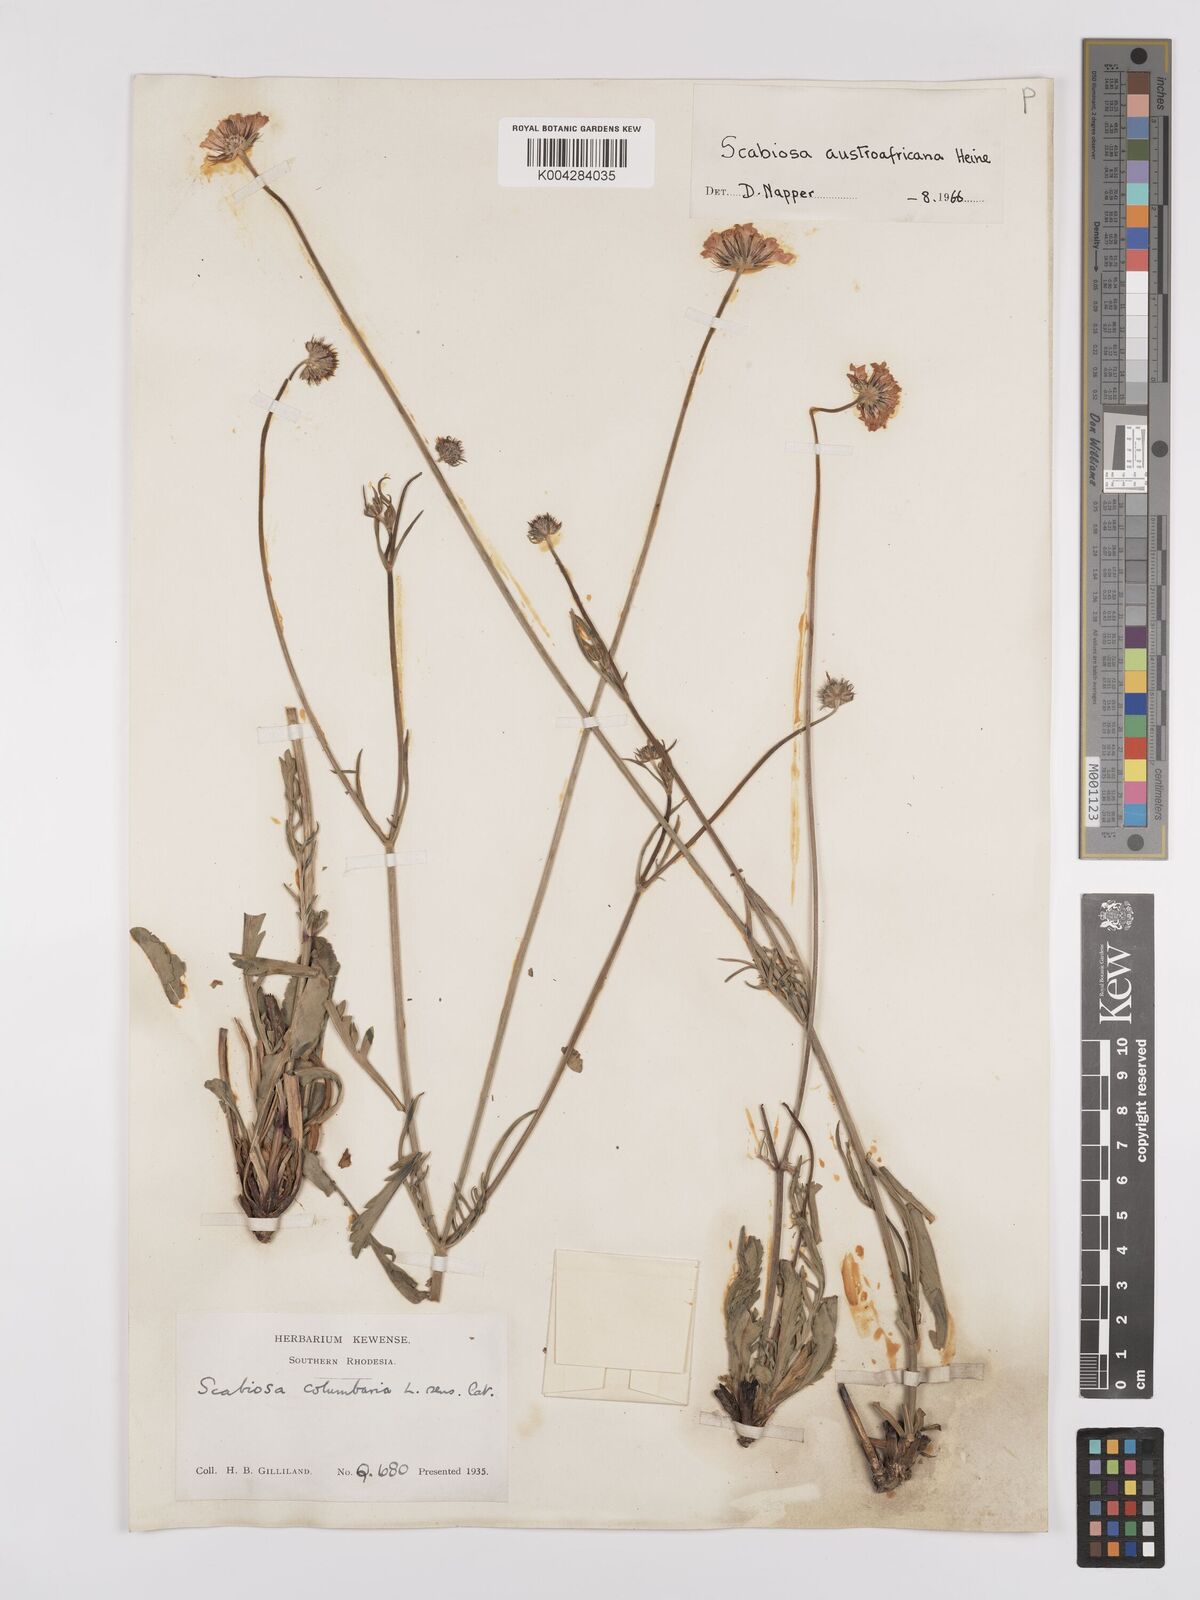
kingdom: Plantae
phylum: Tracheophyta
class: Magnoliopsida
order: Dipsacales
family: Caprifoliaceae
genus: Scabiosa
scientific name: Scabiosa austroafricana
